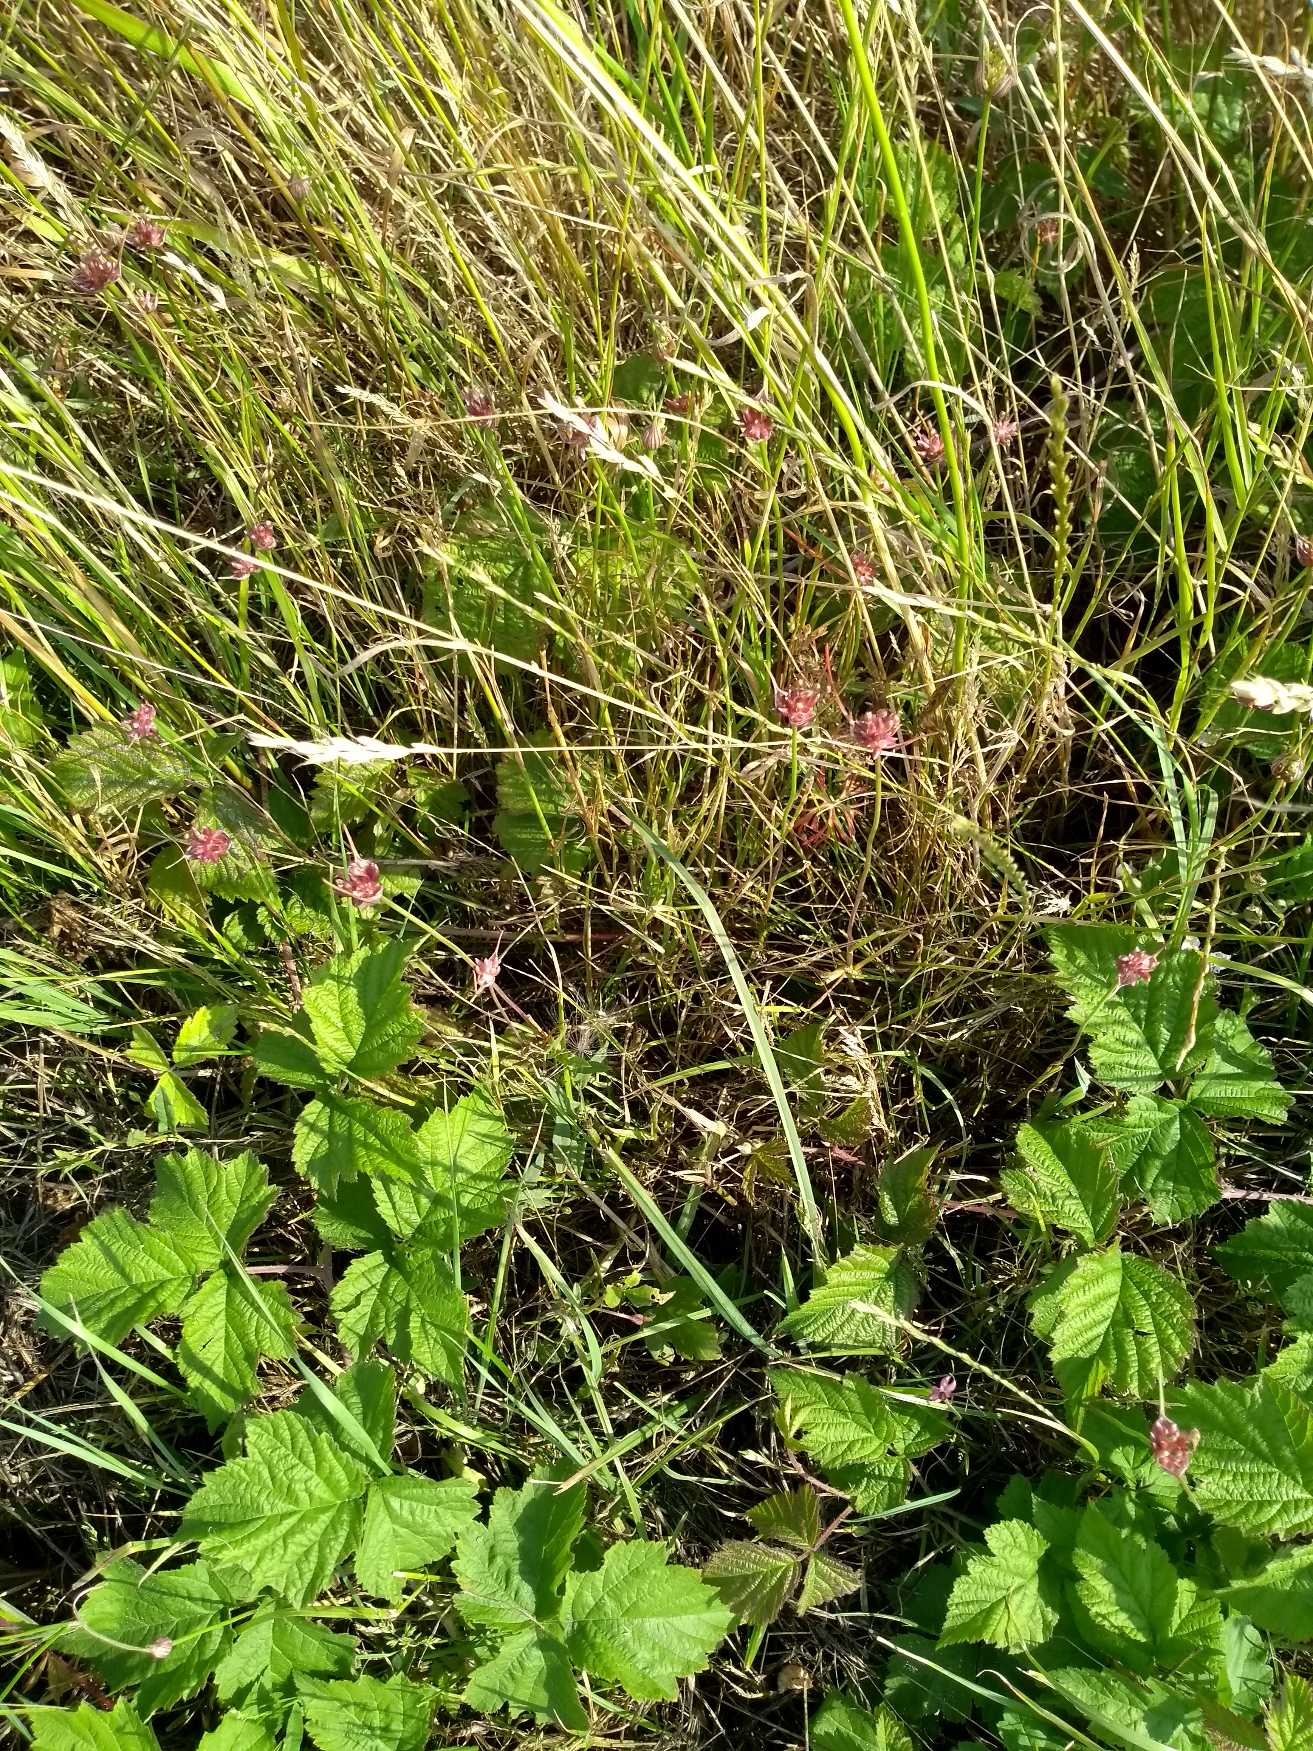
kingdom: Plantae
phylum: Tracheophyta
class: Liliopsida
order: Asparagales
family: Amaryllidaceae
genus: Allium
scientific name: Allium scorodoprasum
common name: Skov-løg
